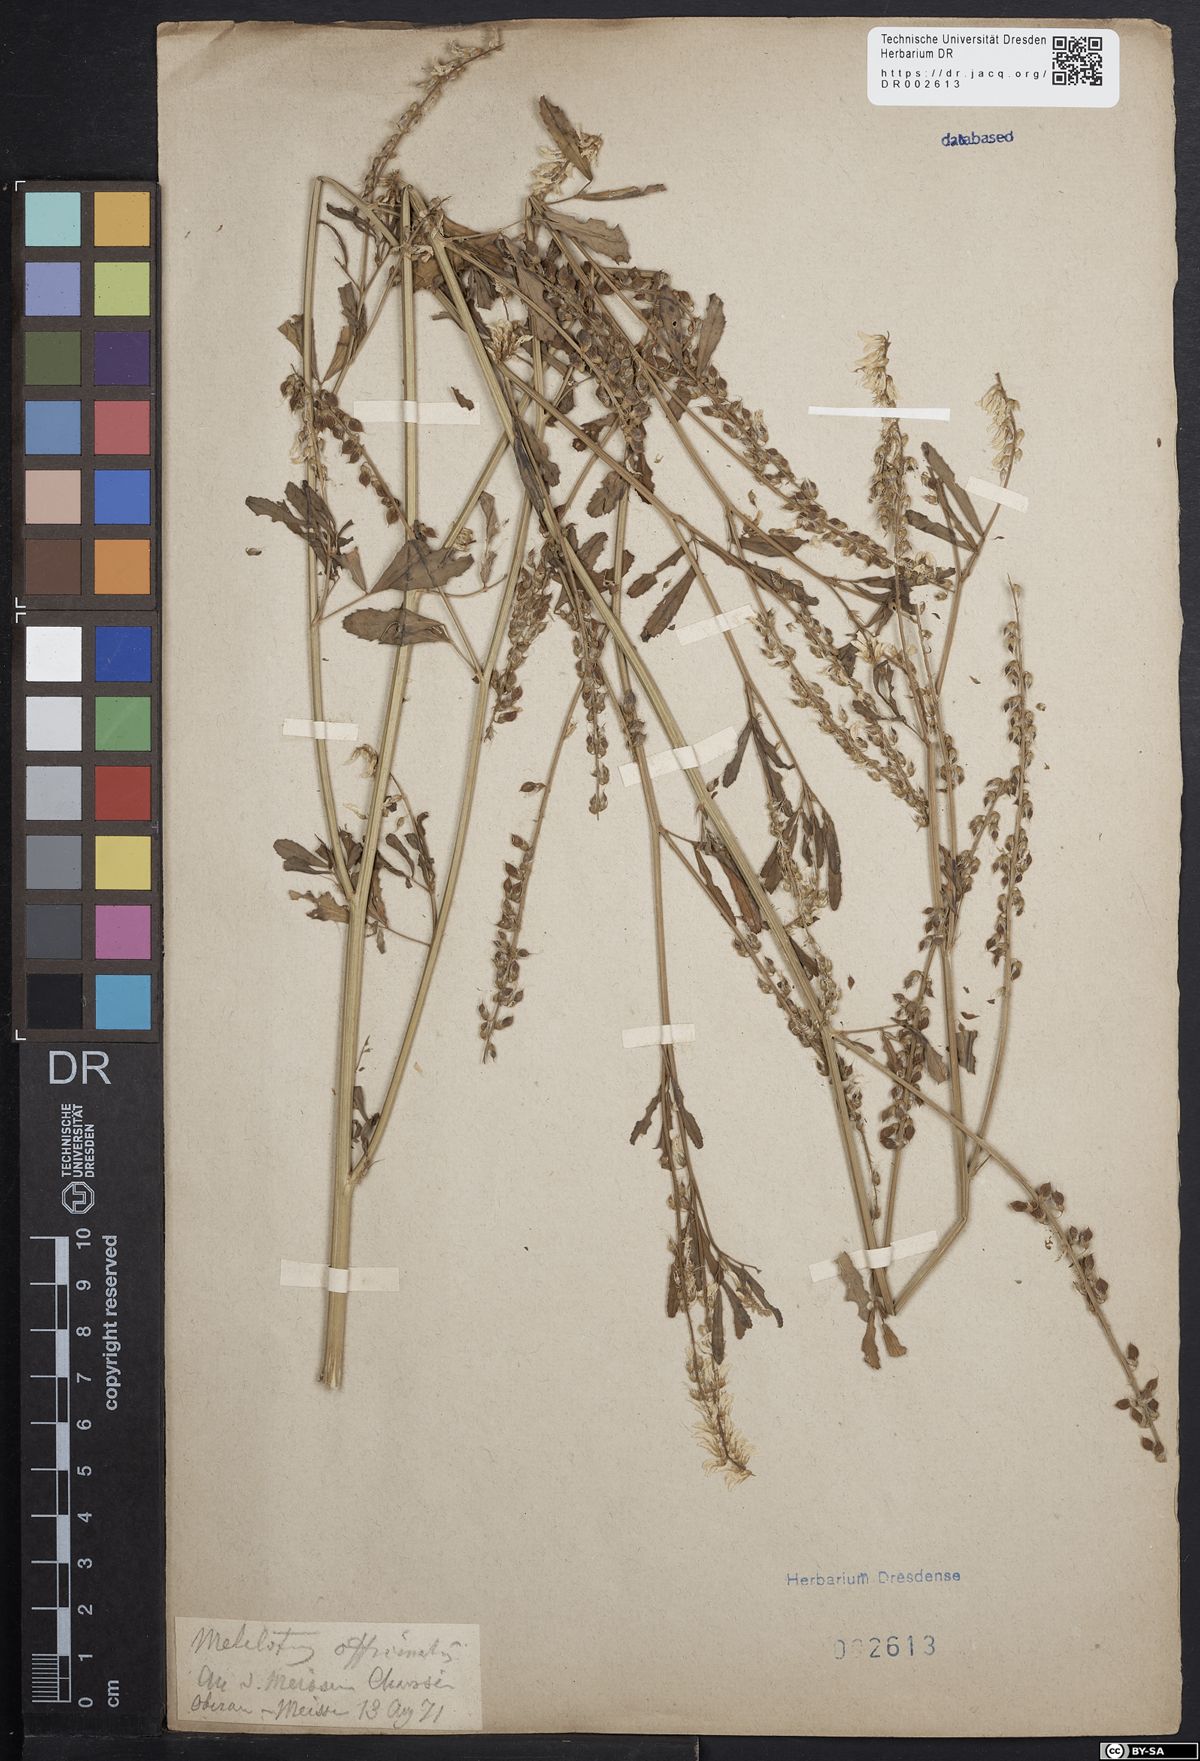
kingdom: Plantae
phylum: Tracheophyta
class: Magnoliopsida
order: Fabales
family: Fabaceae
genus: Melilotus
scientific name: Melilotus officinalis
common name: Sweetclover
